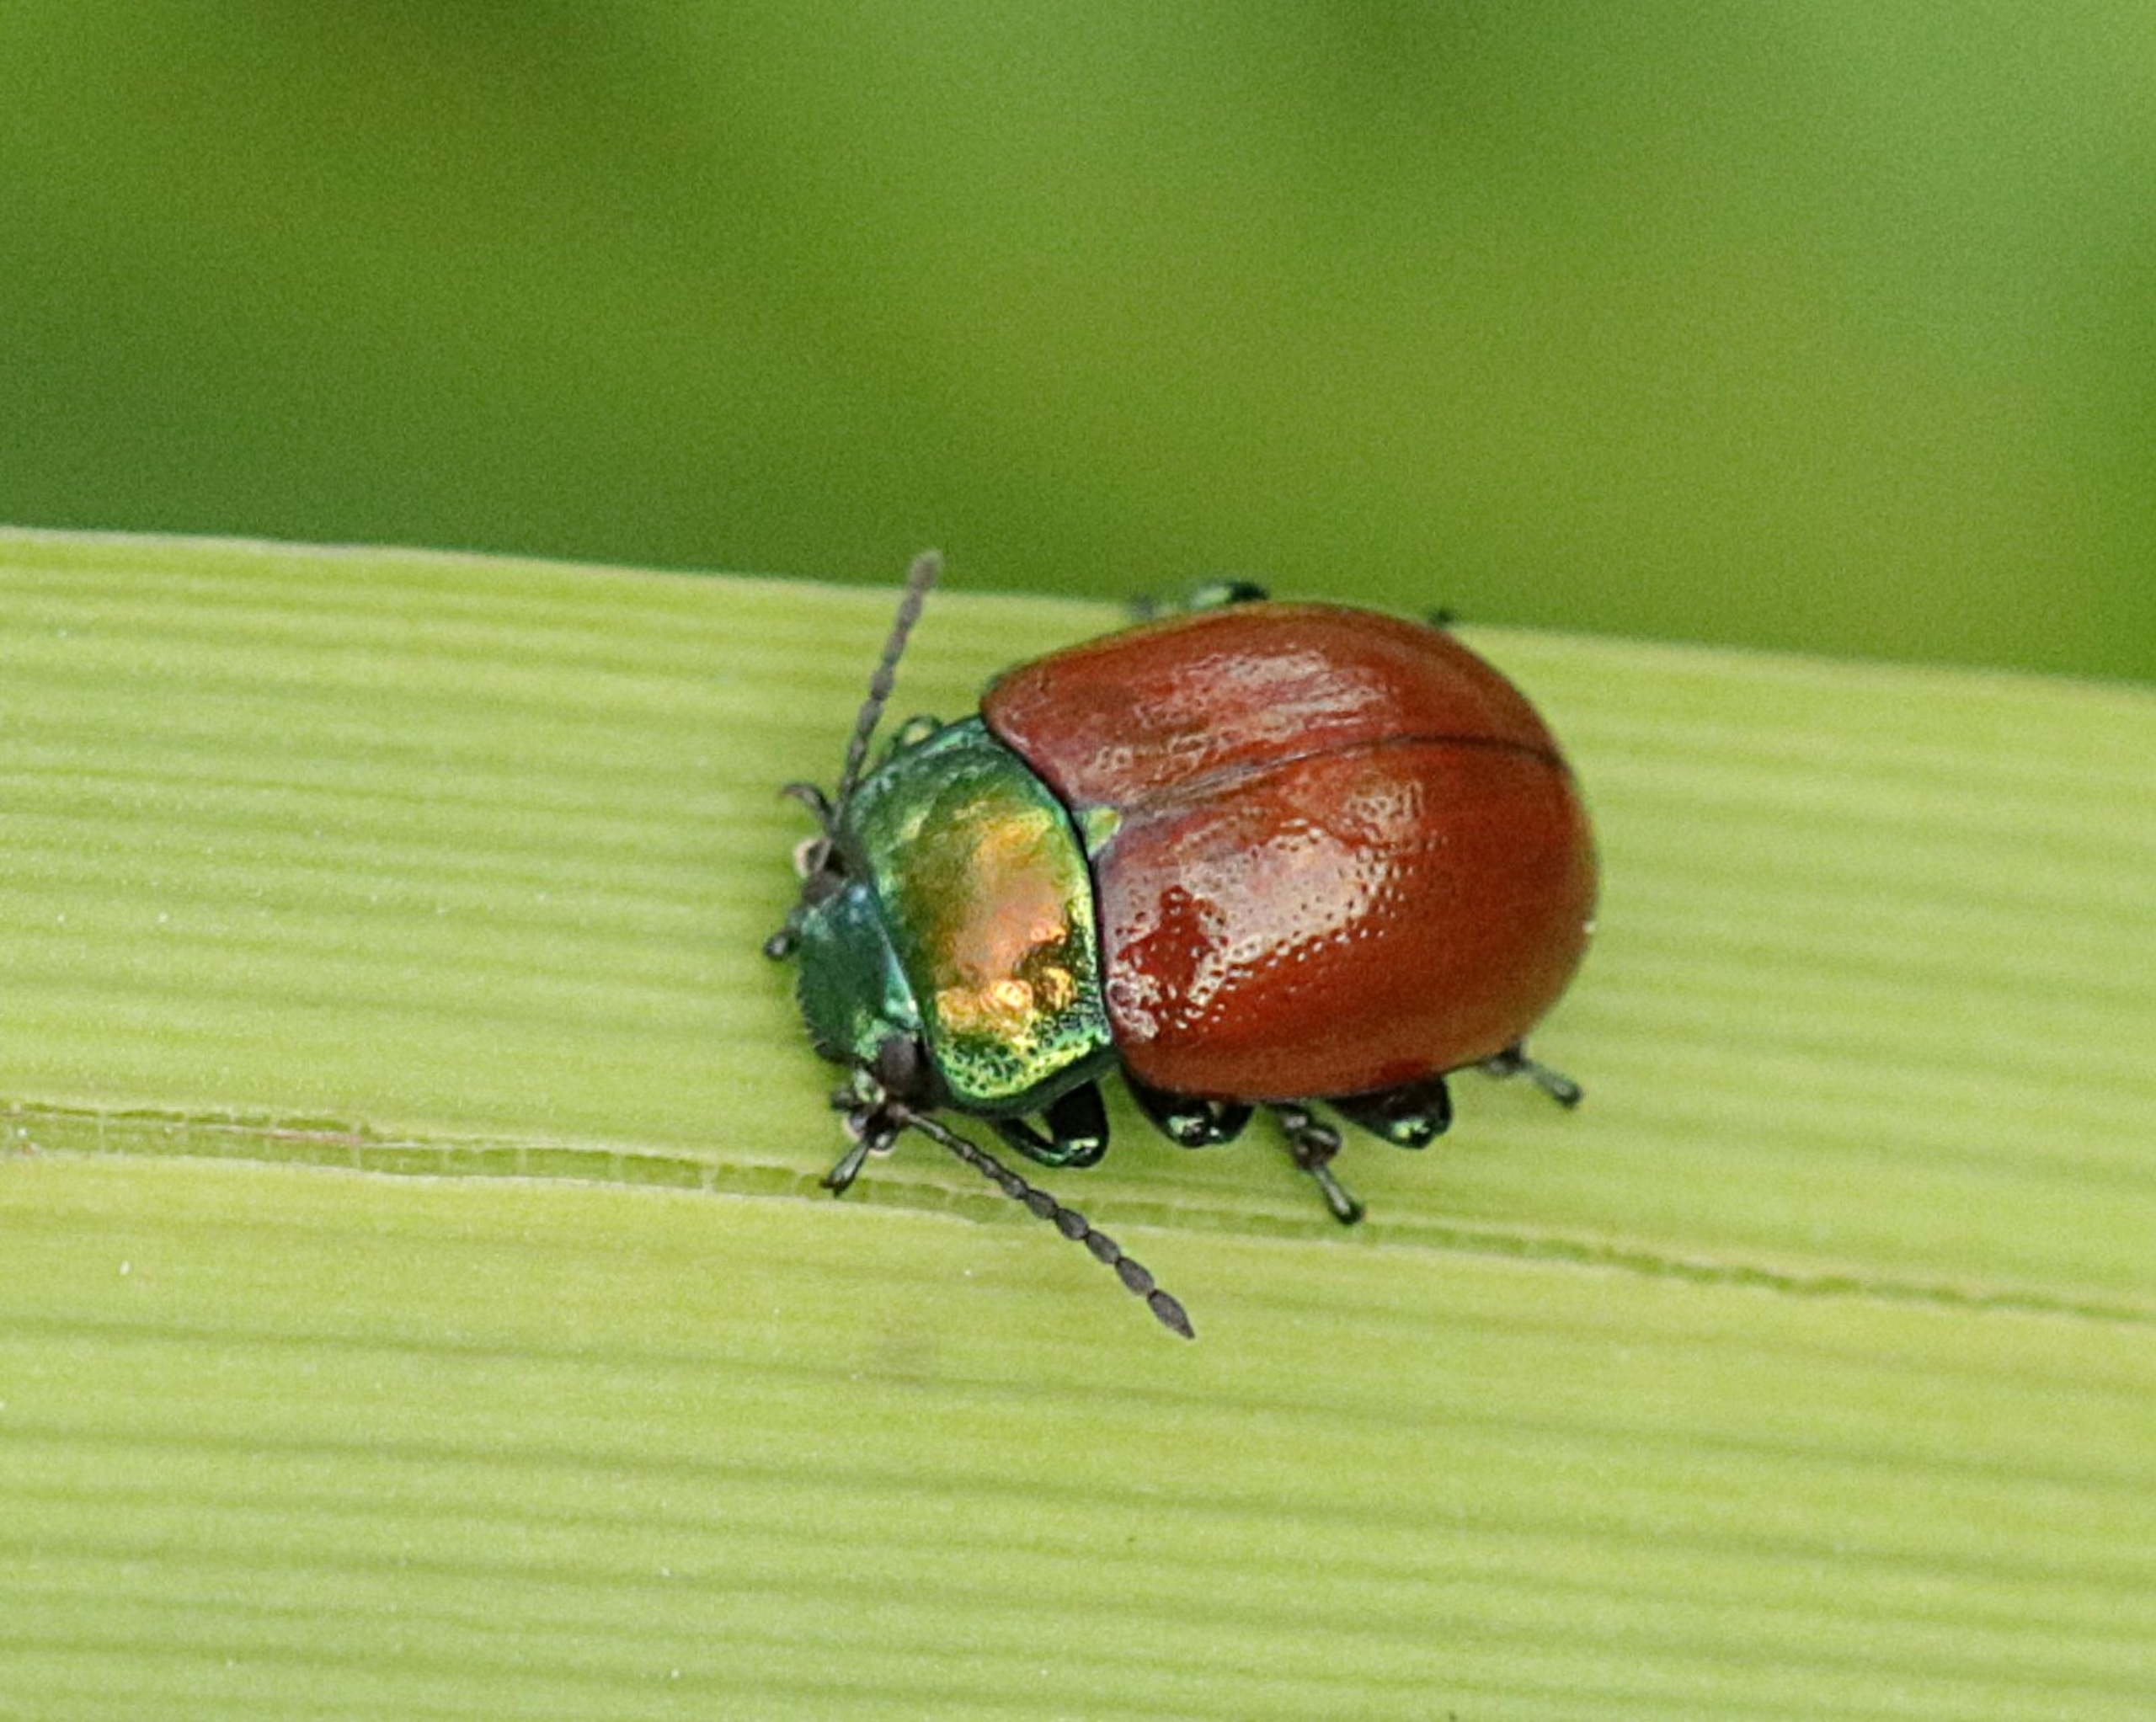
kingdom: Animalia
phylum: Arthropoda
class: Insecta
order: Coleoptera
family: Chrysomelidae
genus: Chrysomela
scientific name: Chrysomela polita
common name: Forskelligfarvet guldbille
